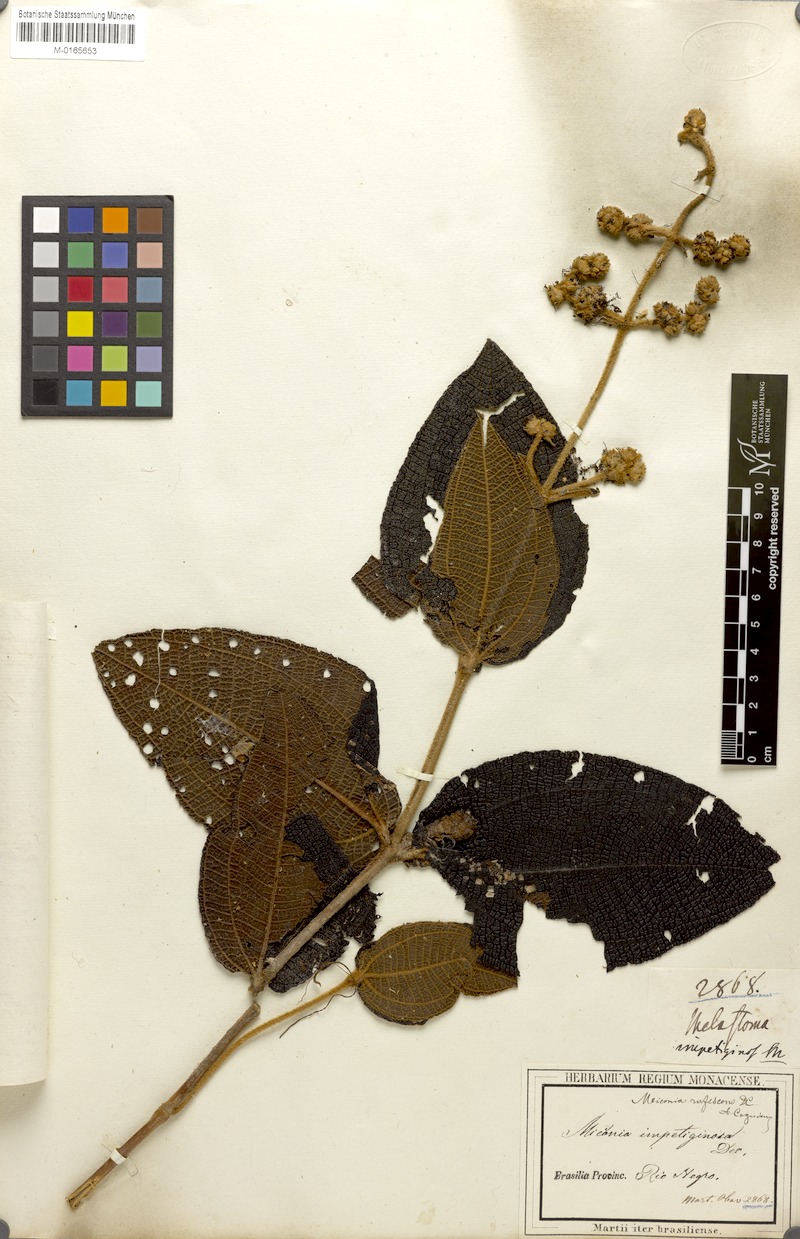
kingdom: Plantae
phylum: Tracheophyta
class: Magnoliopsida
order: Myrtales
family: Melastomataceae
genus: Miconia
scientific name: Miconia rufescens
